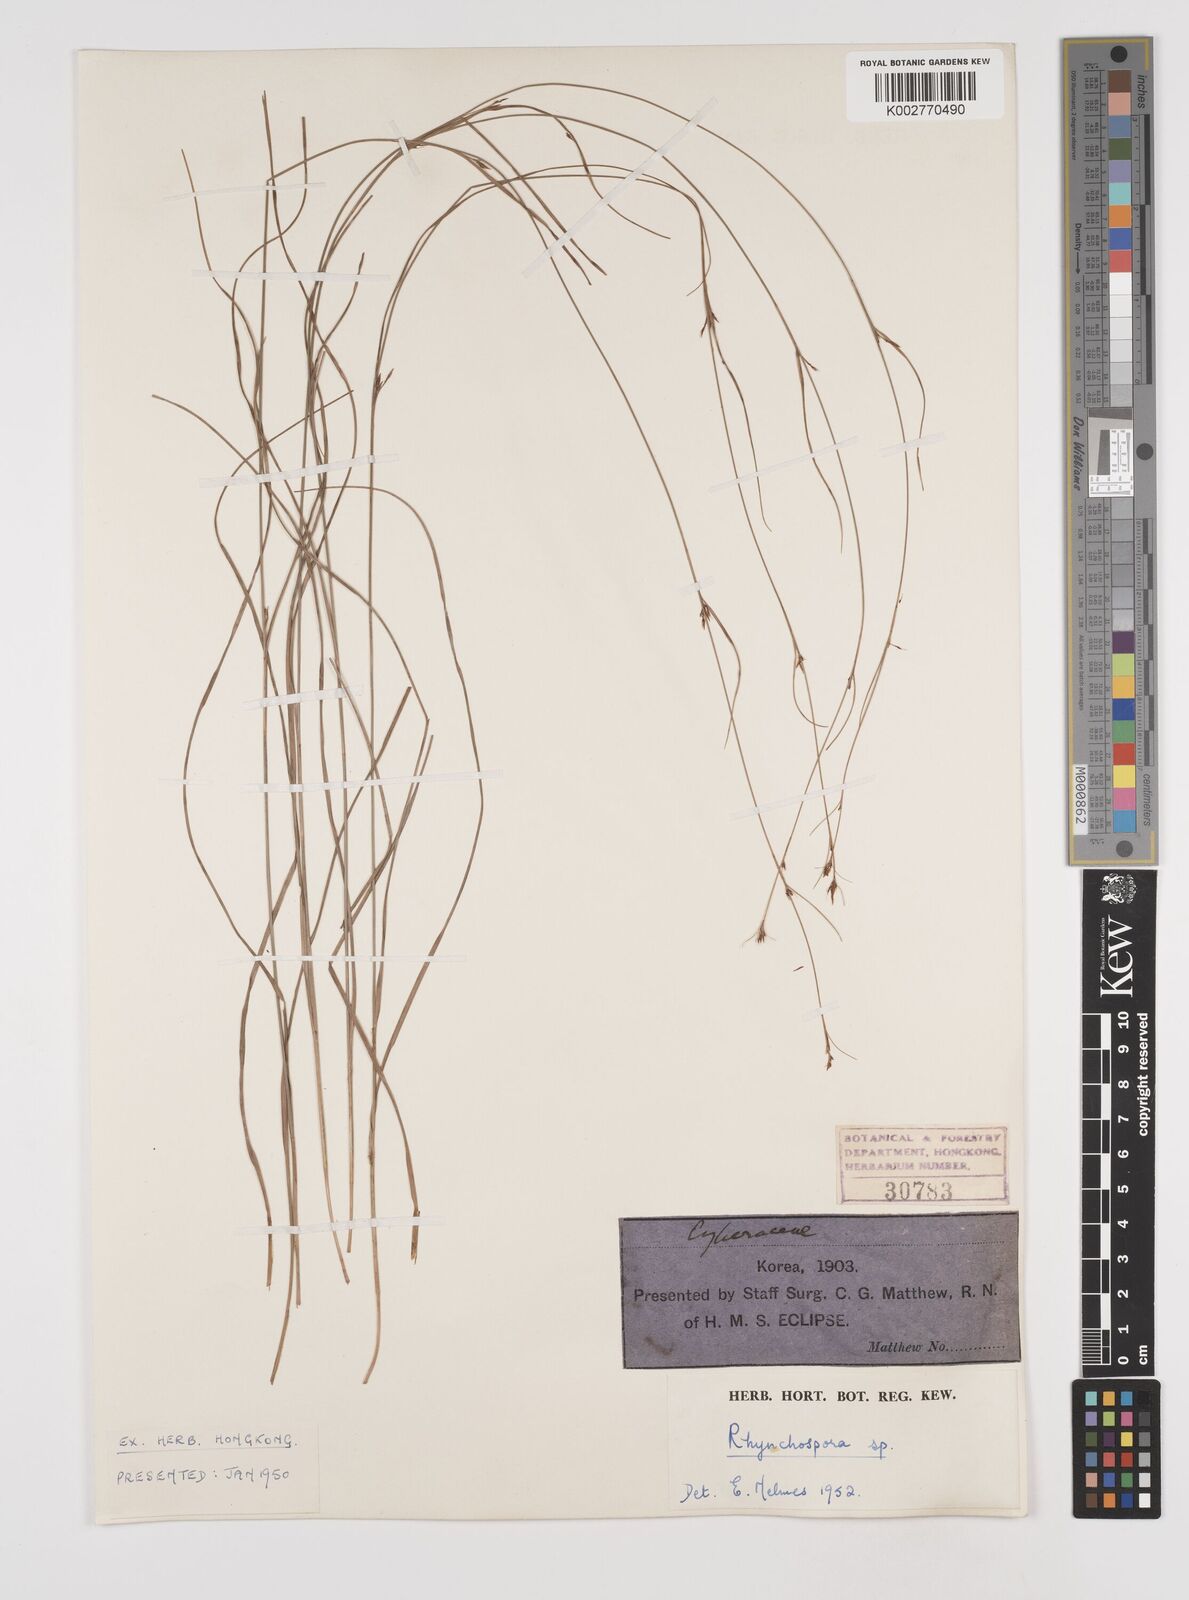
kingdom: Plantae
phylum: Tracheophyta
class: Liliopsida
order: Poales
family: Cyperaceae
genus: Rhynchospora
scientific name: Rhynchospora
